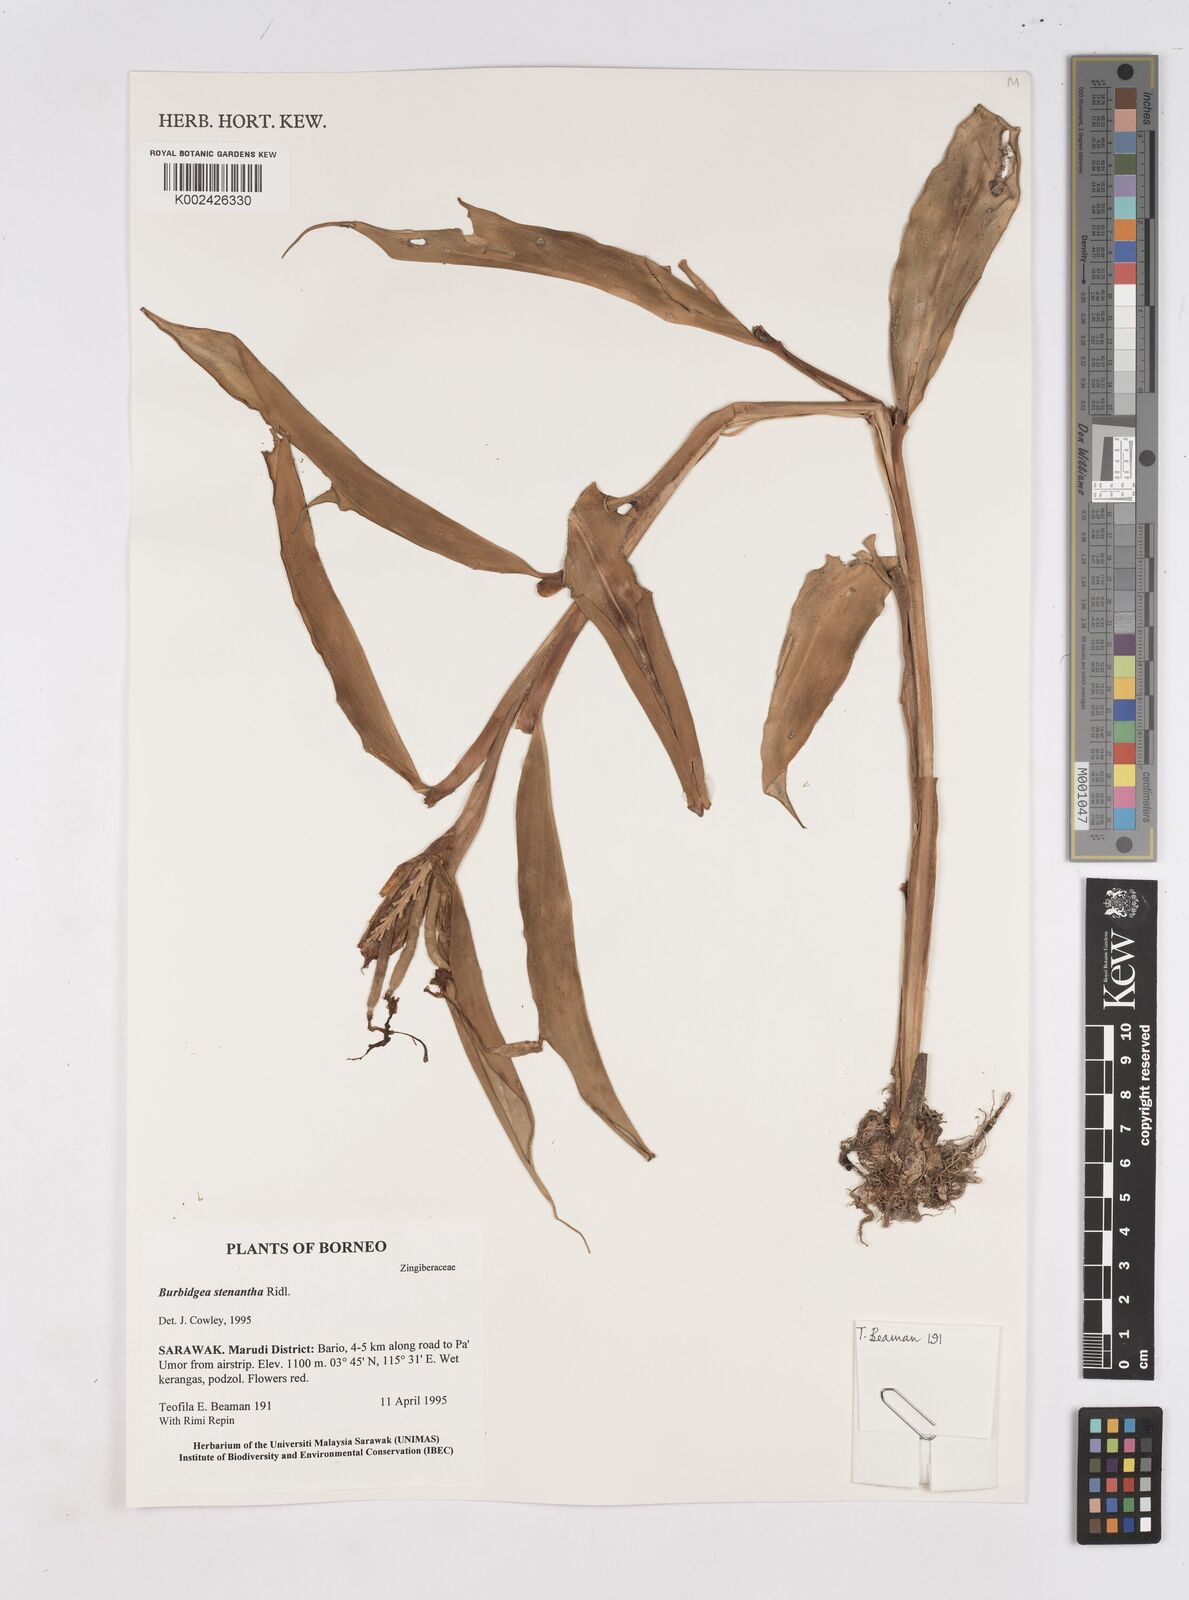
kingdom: Plantae
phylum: Tracheophyta
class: Liliopsida
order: Zingiberales
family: Zingiberaceae
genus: Burbidgea
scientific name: Burbidgea stenantha
